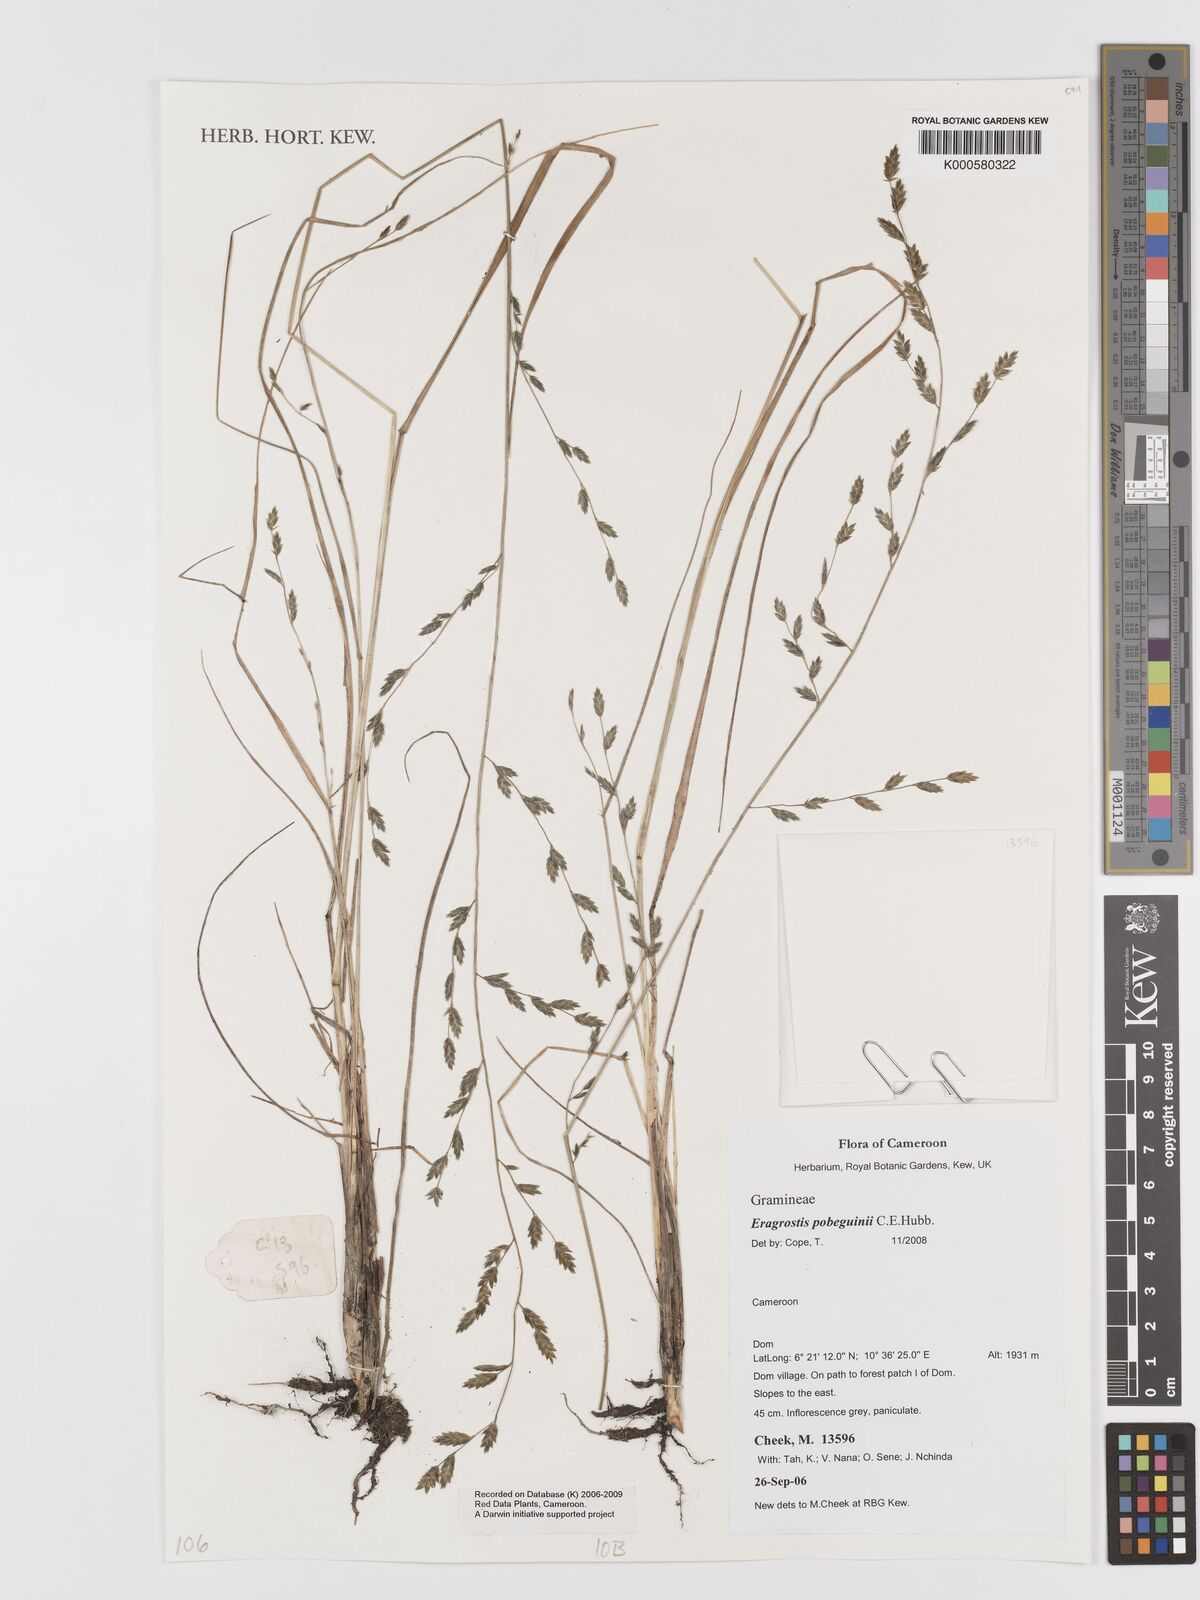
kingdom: Plantae
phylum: Tracheophyta
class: Liliopsida
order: Poales
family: Poaceae
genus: Eragrostis
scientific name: Eragrostis pobeguinii
